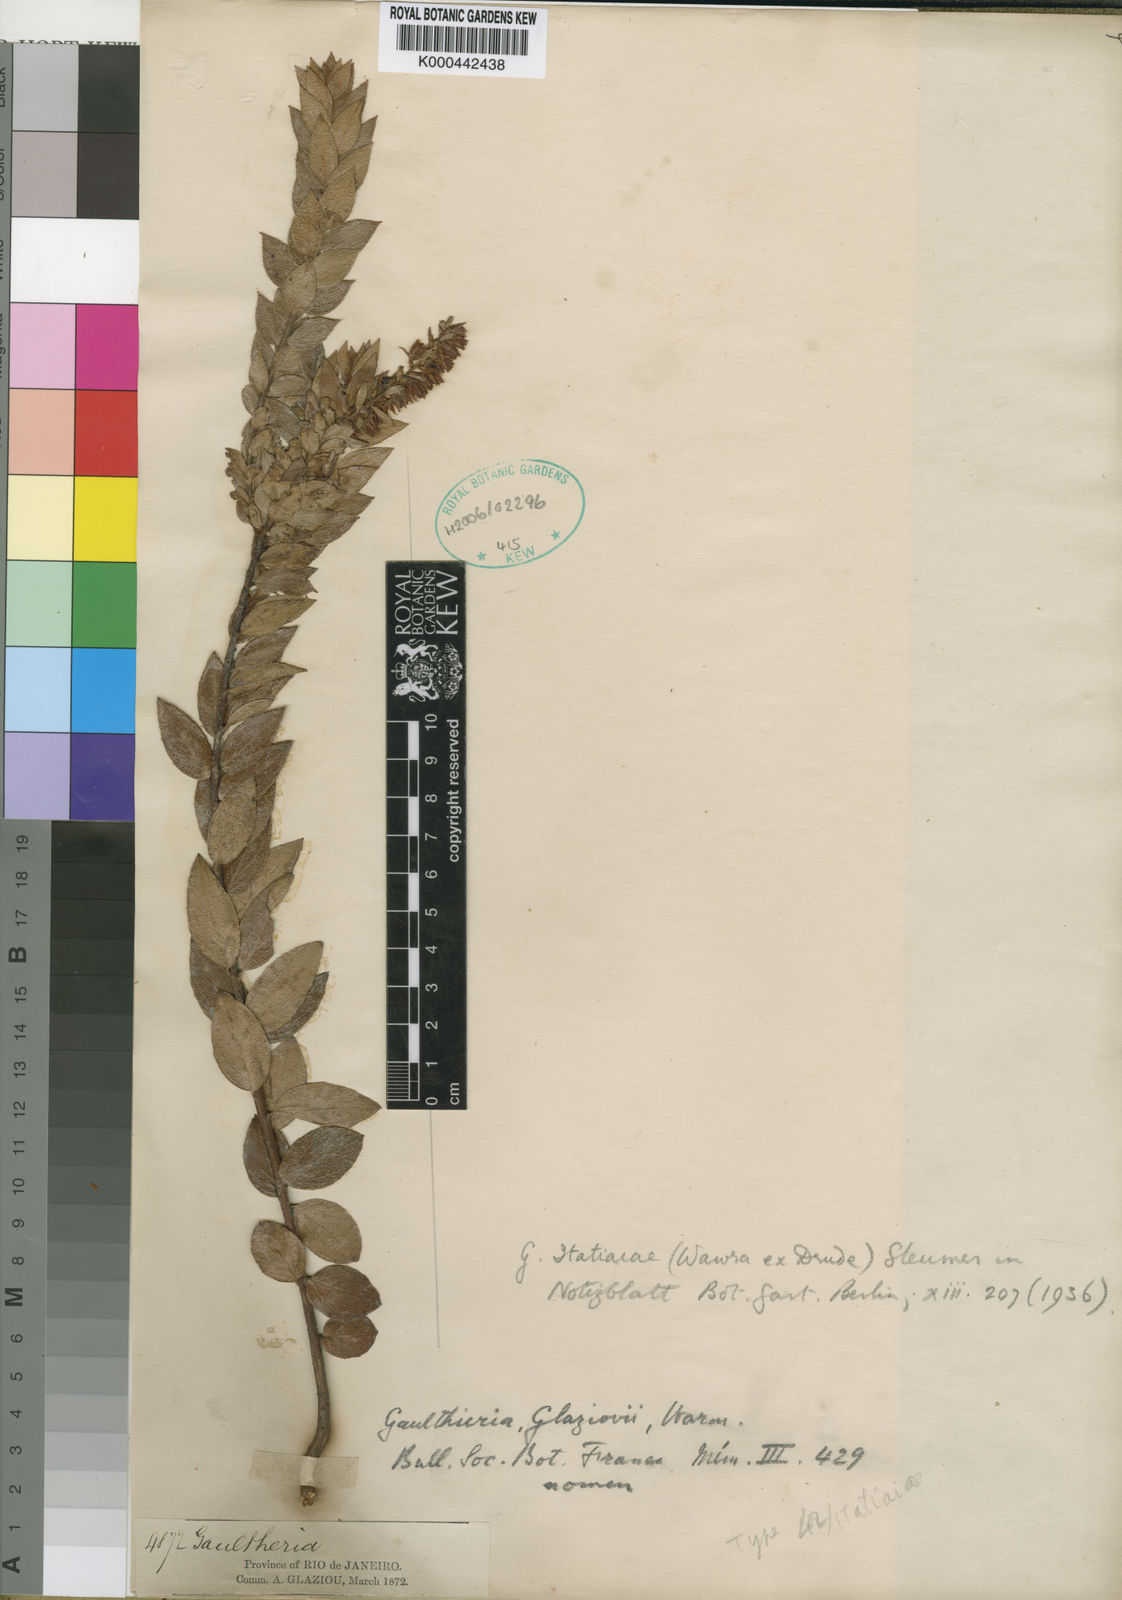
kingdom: Plantae
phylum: Tracheophyta
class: Magnoliopsida
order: Ericales
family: Ericaceae
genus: Gaultheria
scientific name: Gaultheria
